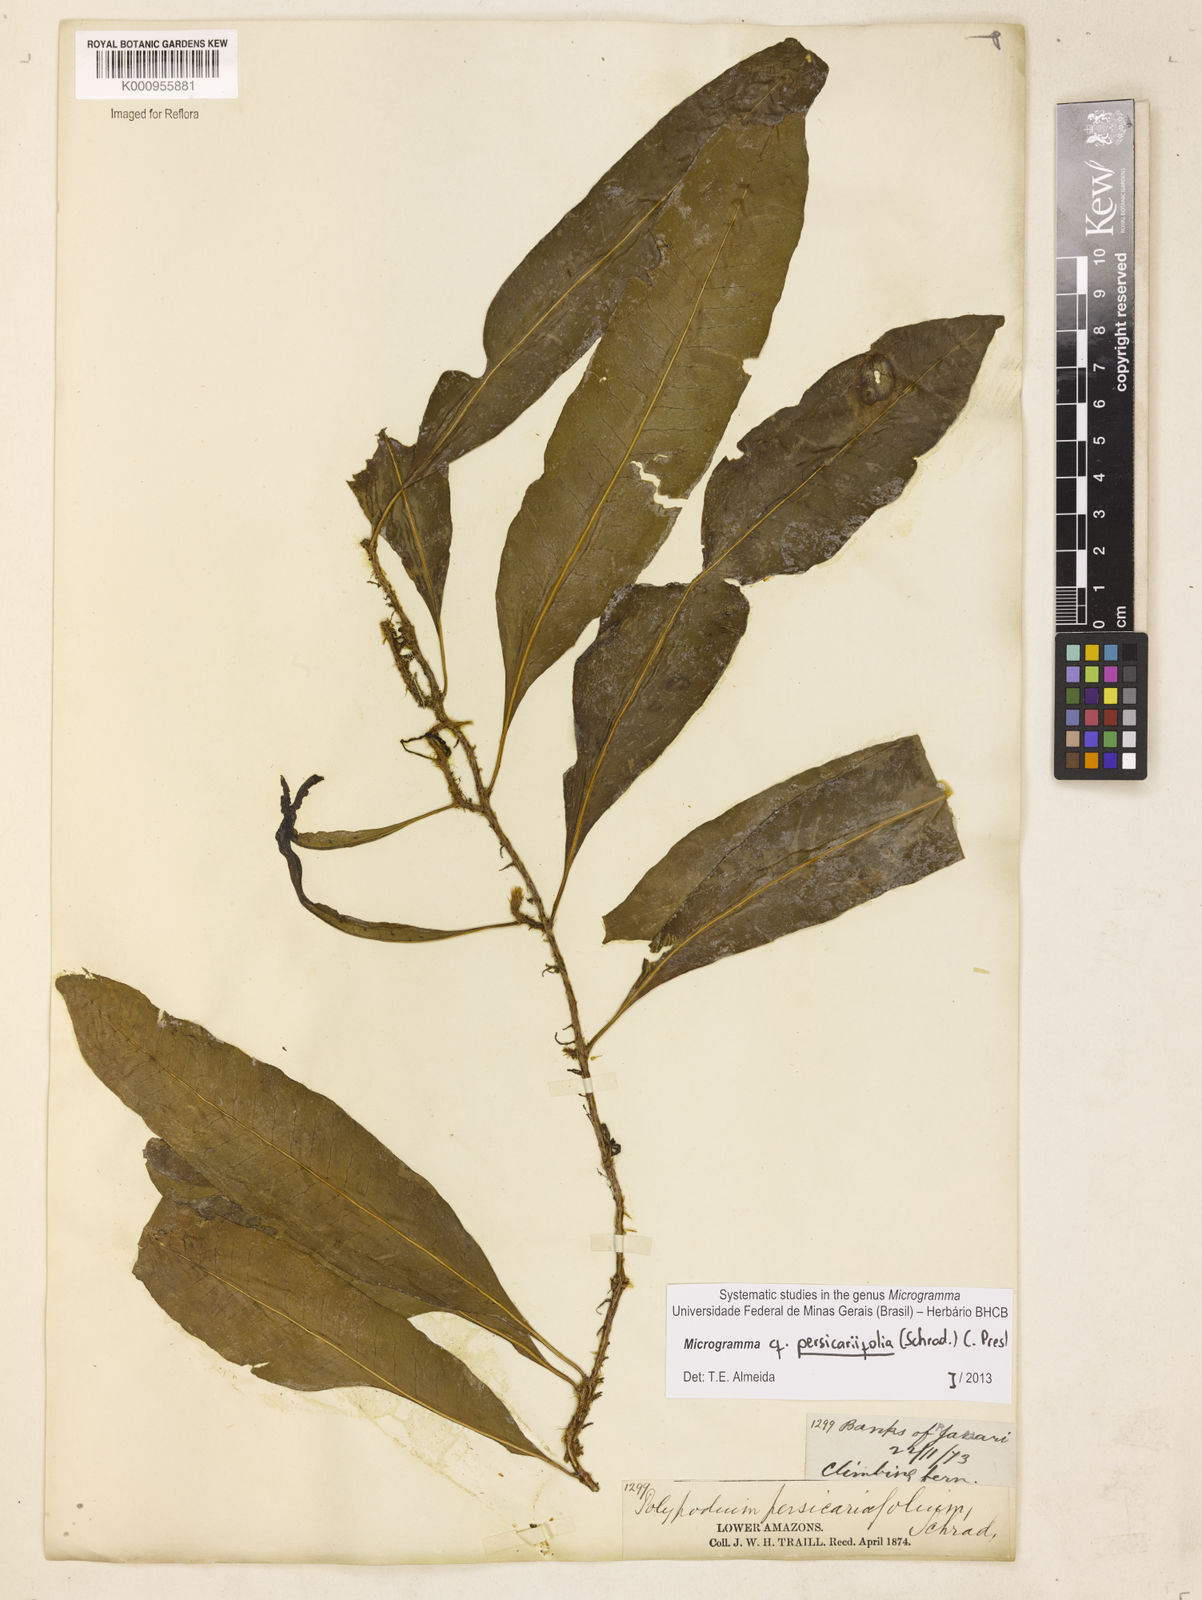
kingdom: Plantae
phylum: Tracheophyta
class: Polypodiopsida
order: Polypodiales
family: Polypodiaceae
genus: Microgramma
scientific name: Microgramma persicariifolia
